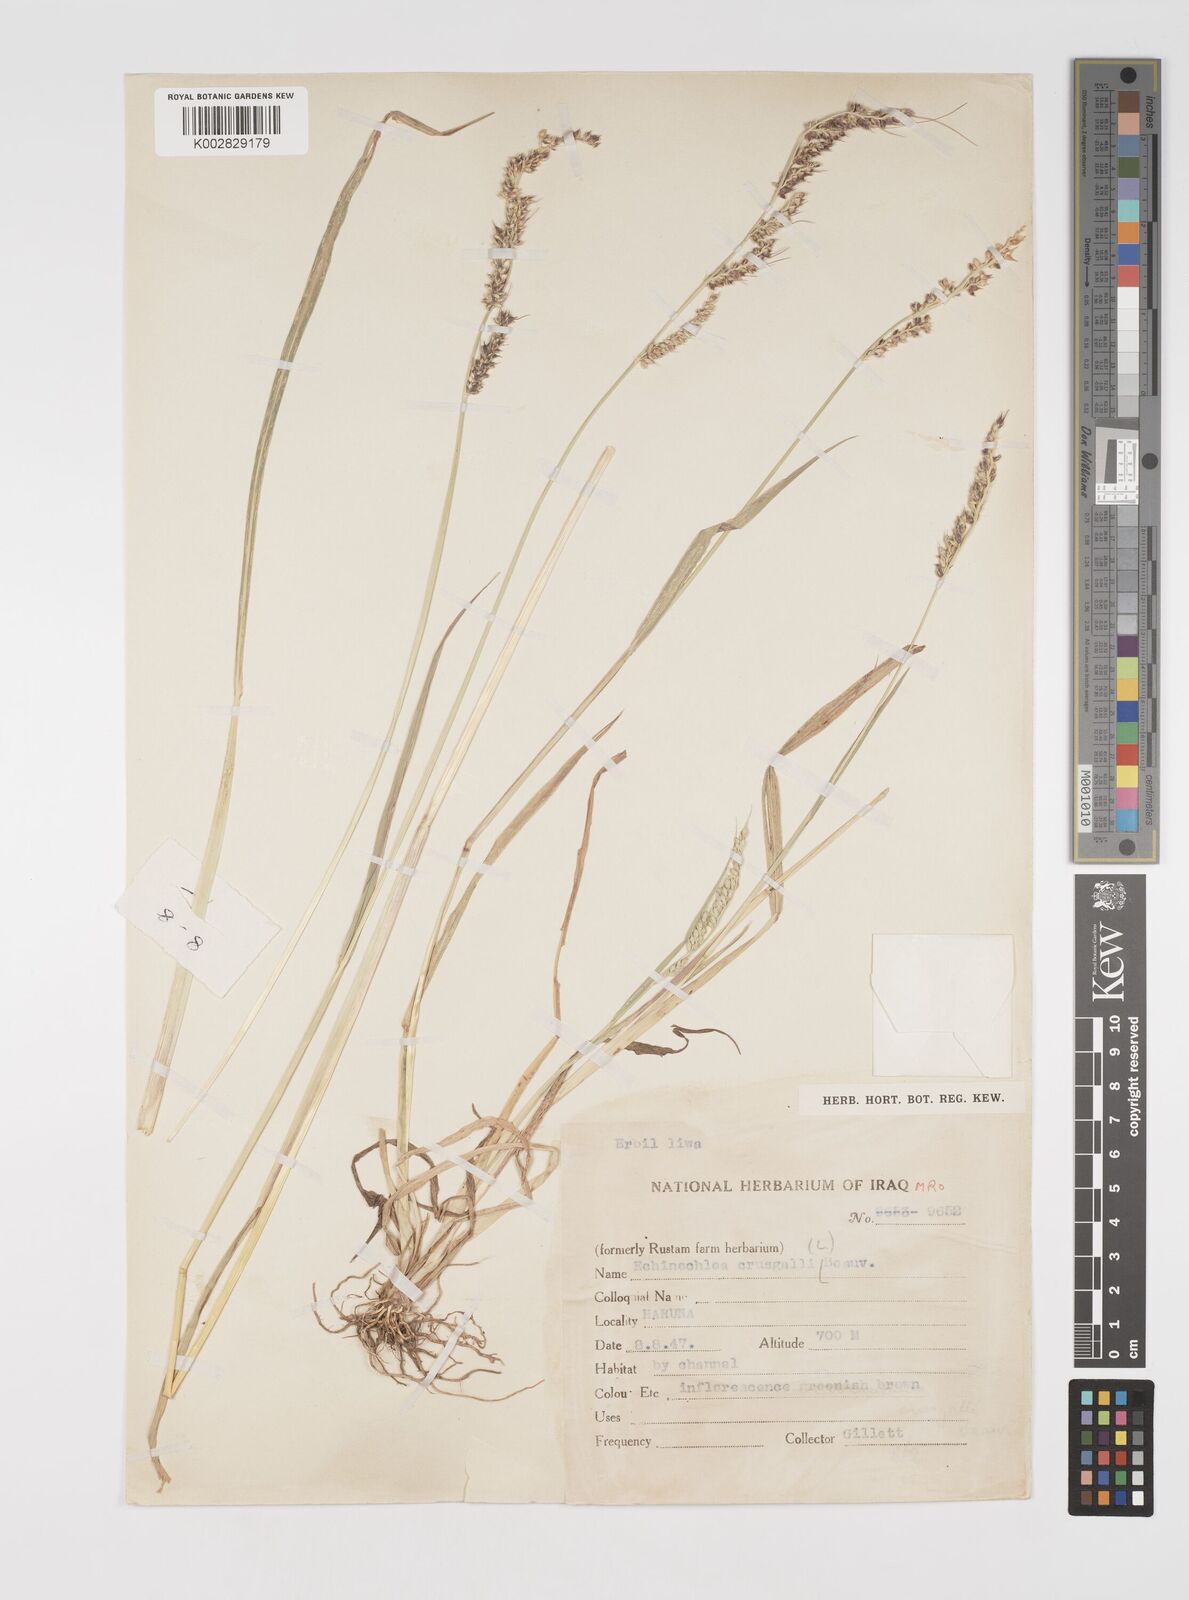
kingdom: Plantae
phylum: Tracheophyta
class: Liliopsida
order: Poales
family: Poaceae
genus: Echinochloa
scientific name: Echinochloa crus-galli
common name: Cockspur
